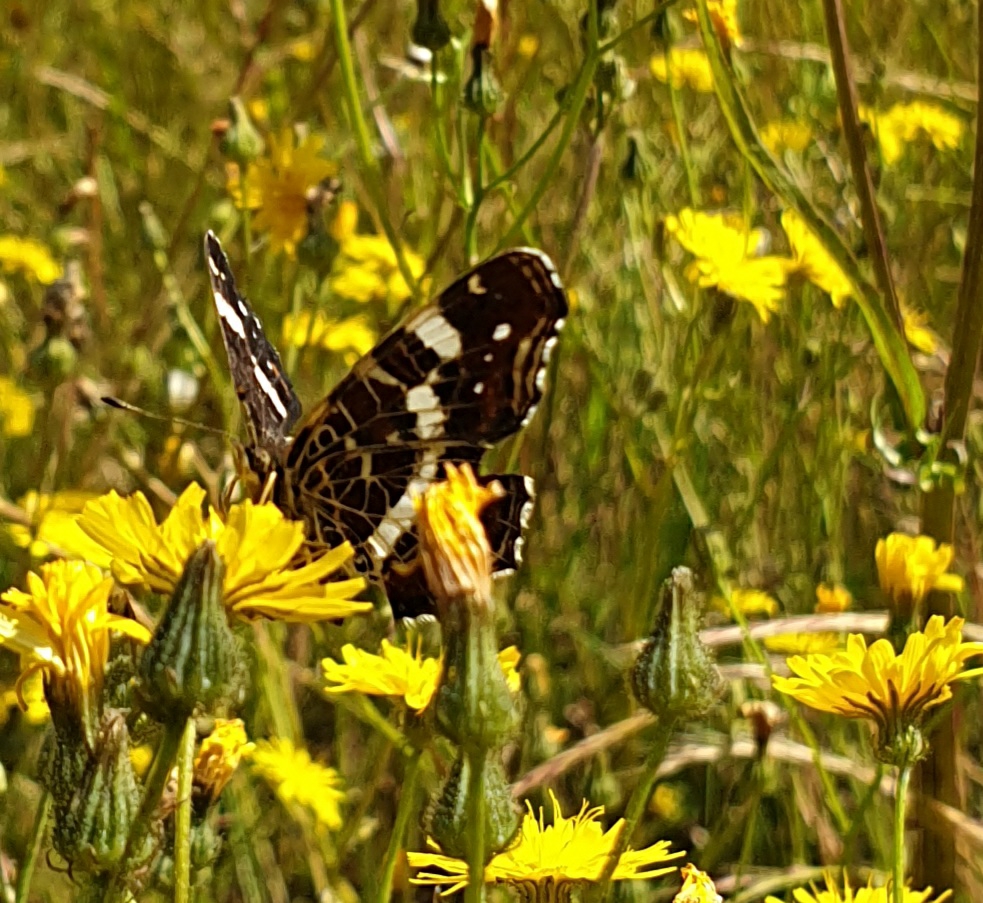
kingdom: Animalia
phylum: Arthropoda
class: Insecta
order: Lepidoptera
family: Nymphalidae
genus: Araschnia
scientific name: Araschnia levana
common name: Nældesommerfugl
